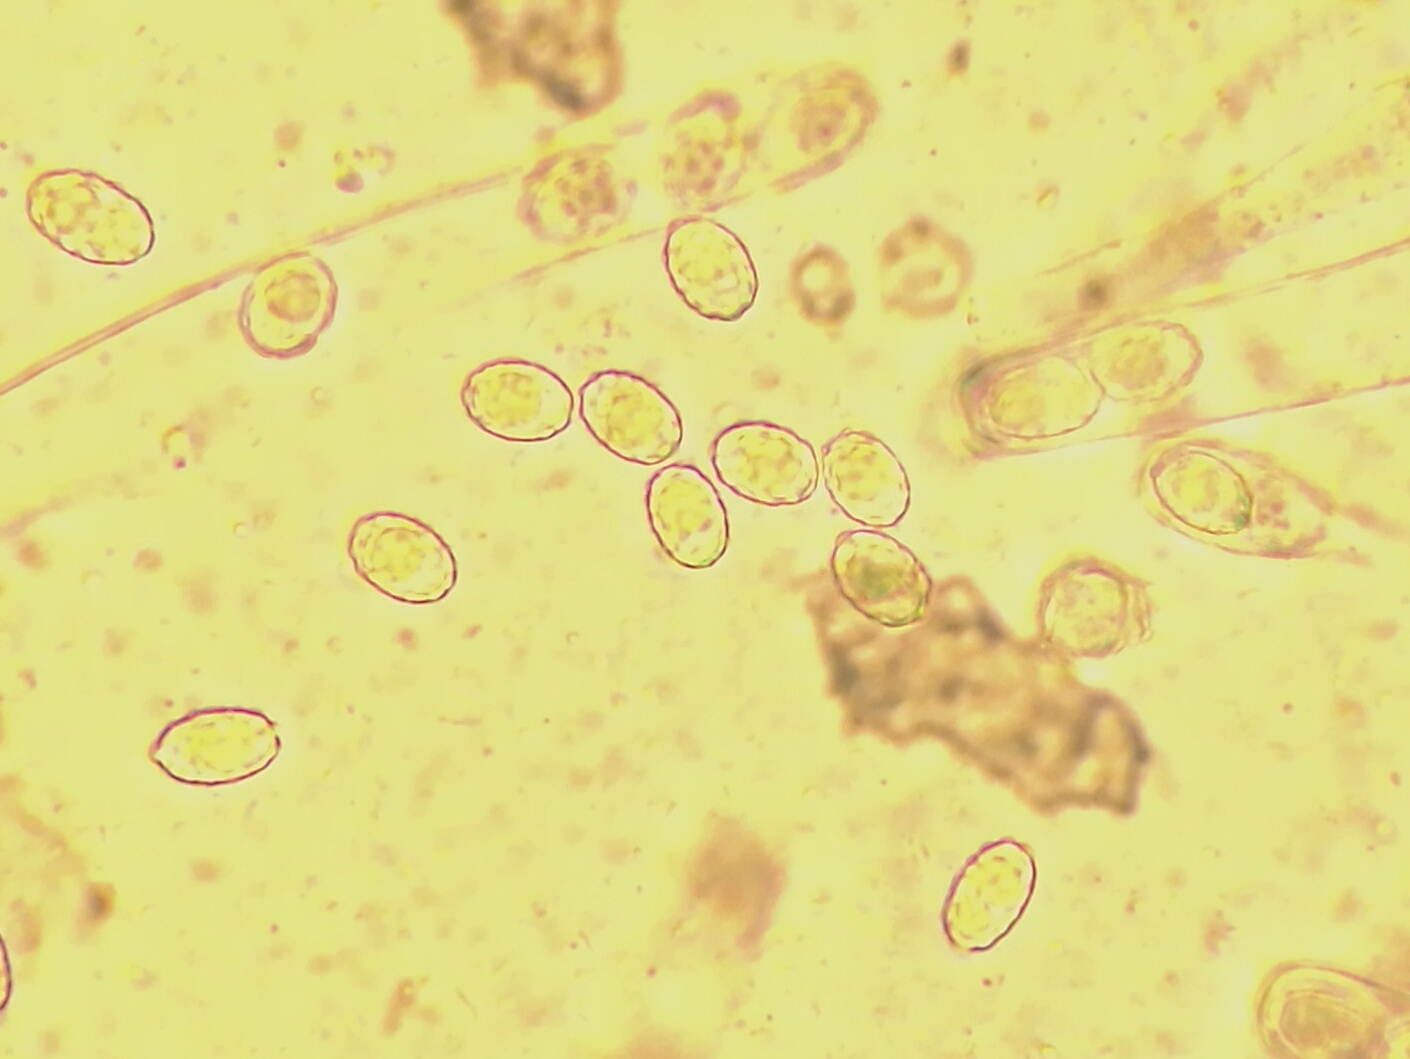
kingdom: Fungi
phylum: Ascomycota
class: Pezizomycetes
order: Pezizales
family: Pezizaceae
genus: Daleomyces
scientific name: Daleomyces phillipsii
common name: blomkåls-bægersvamp
